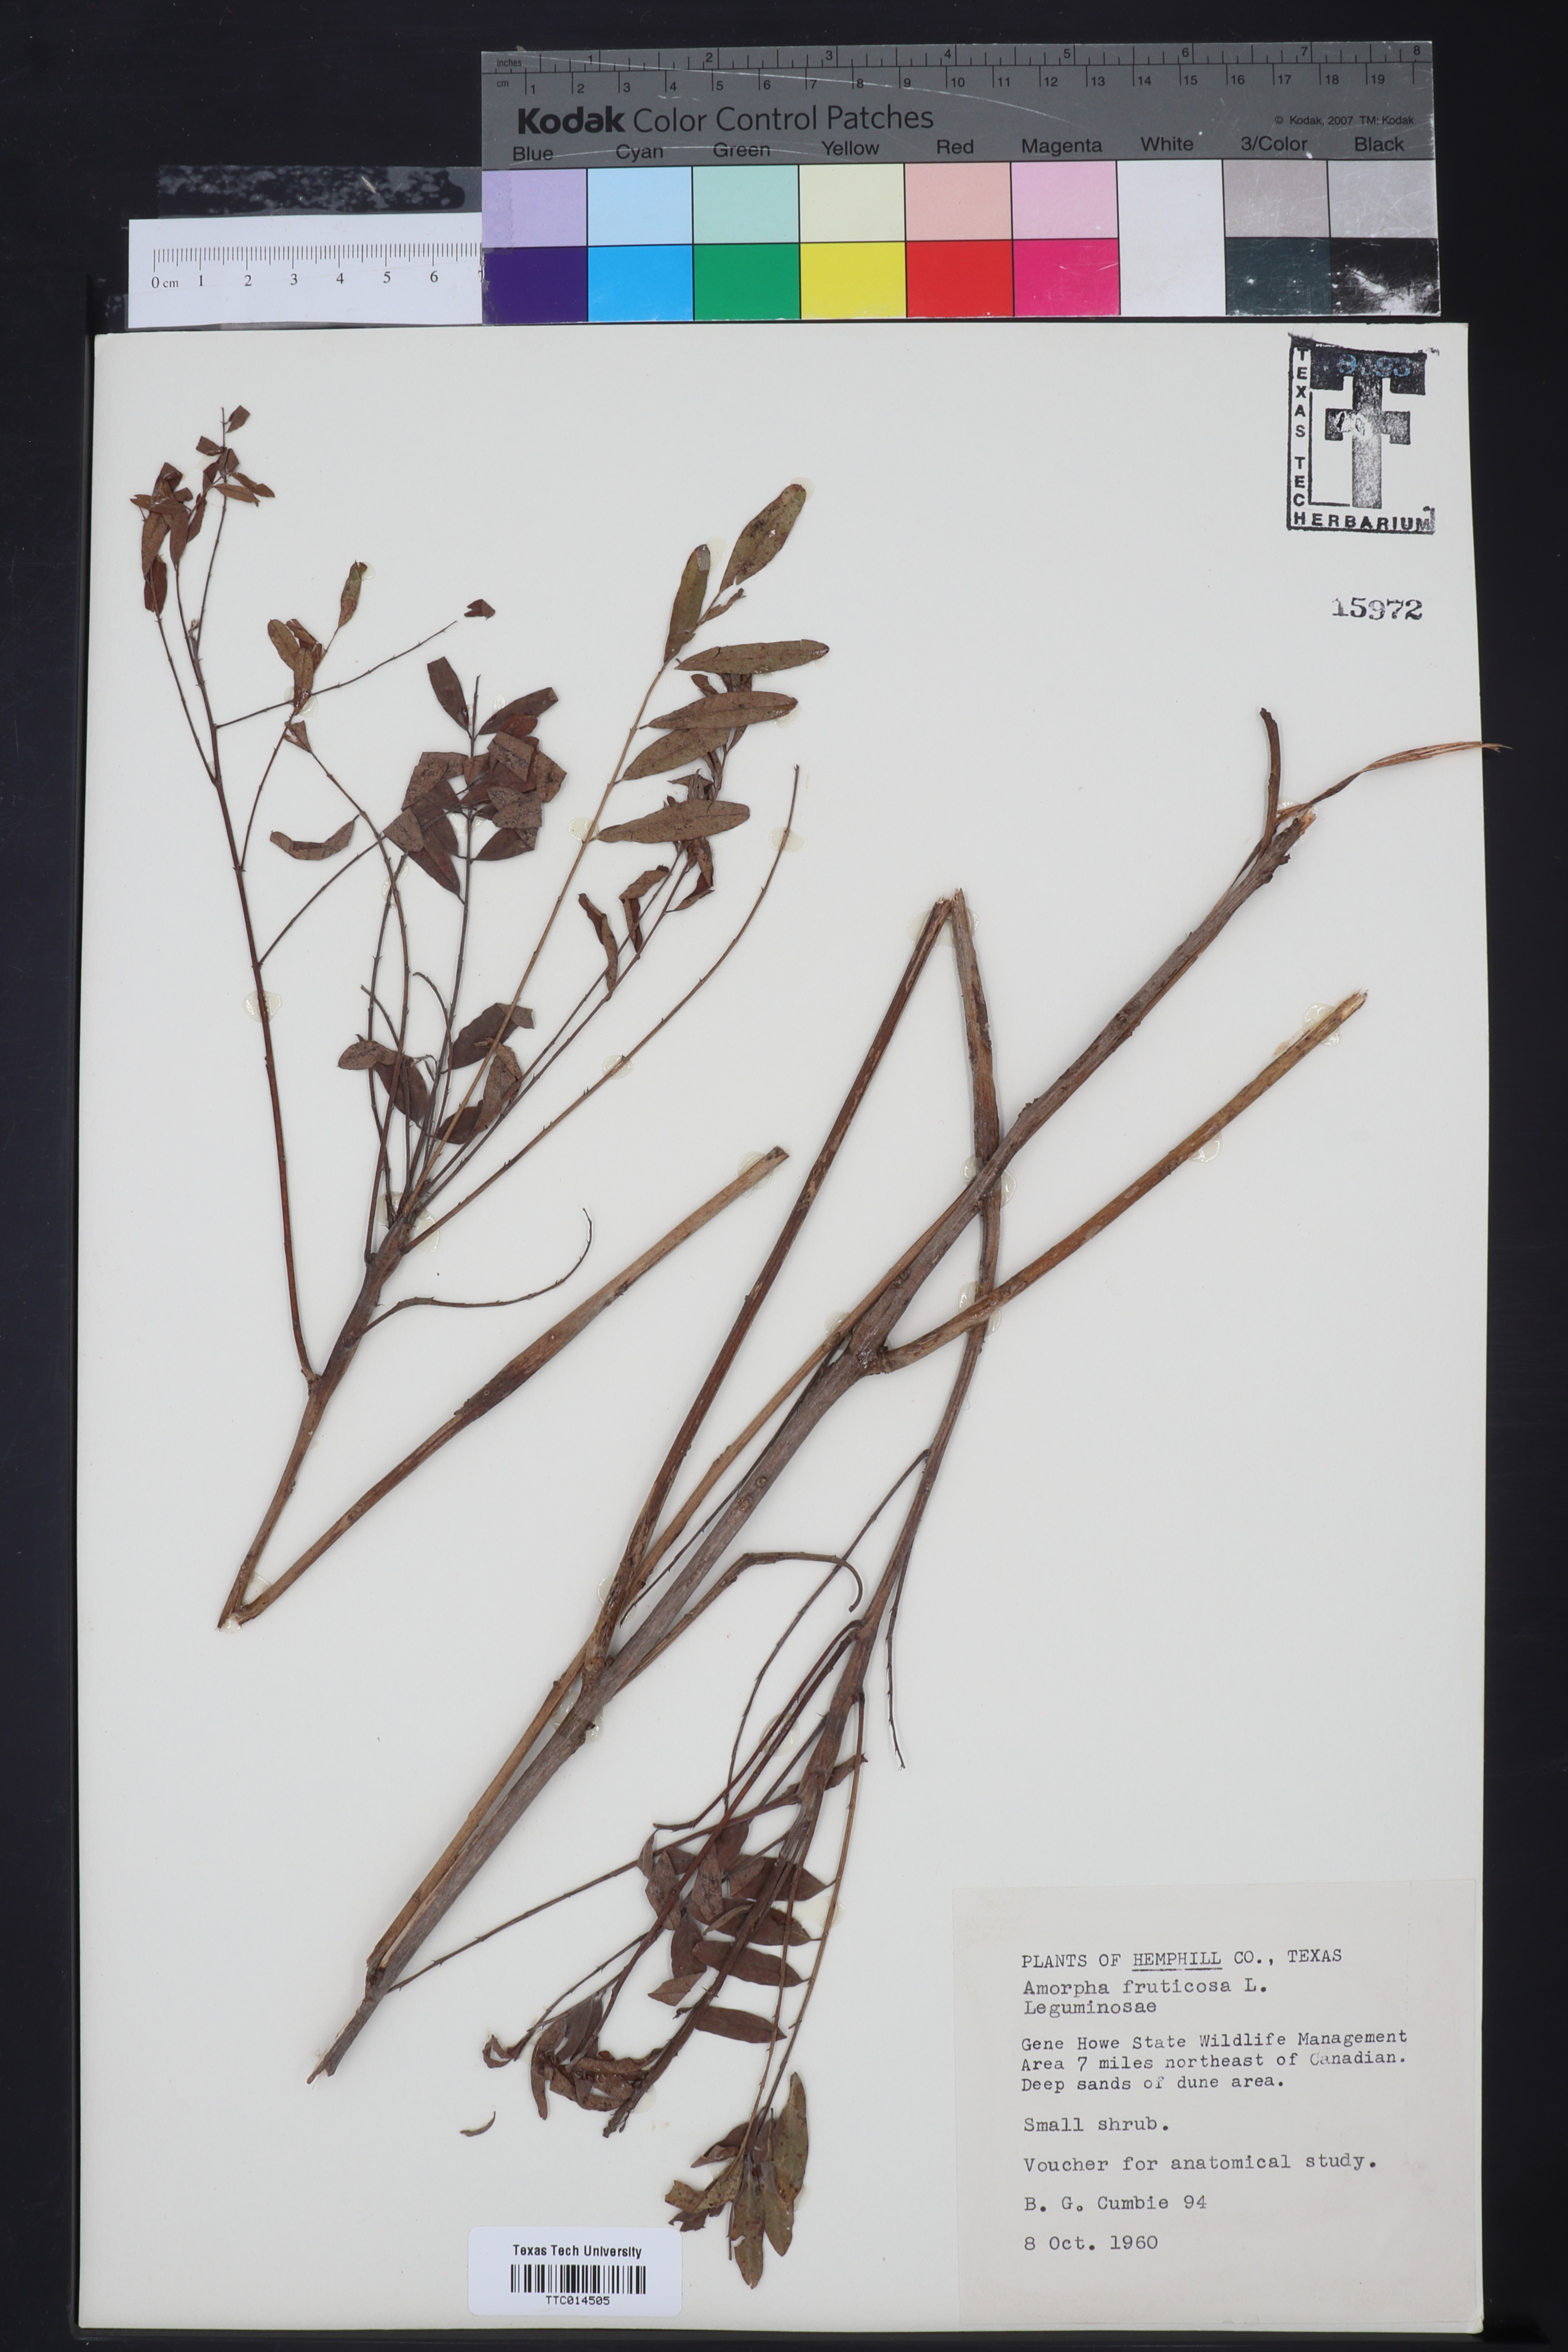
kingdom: Plantae
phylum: Tracheophyta
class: Magnoliopsida
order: Fabales
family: Fabaceae
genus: Amorpha
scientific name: Amorpha fruticosa
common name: False indigo
